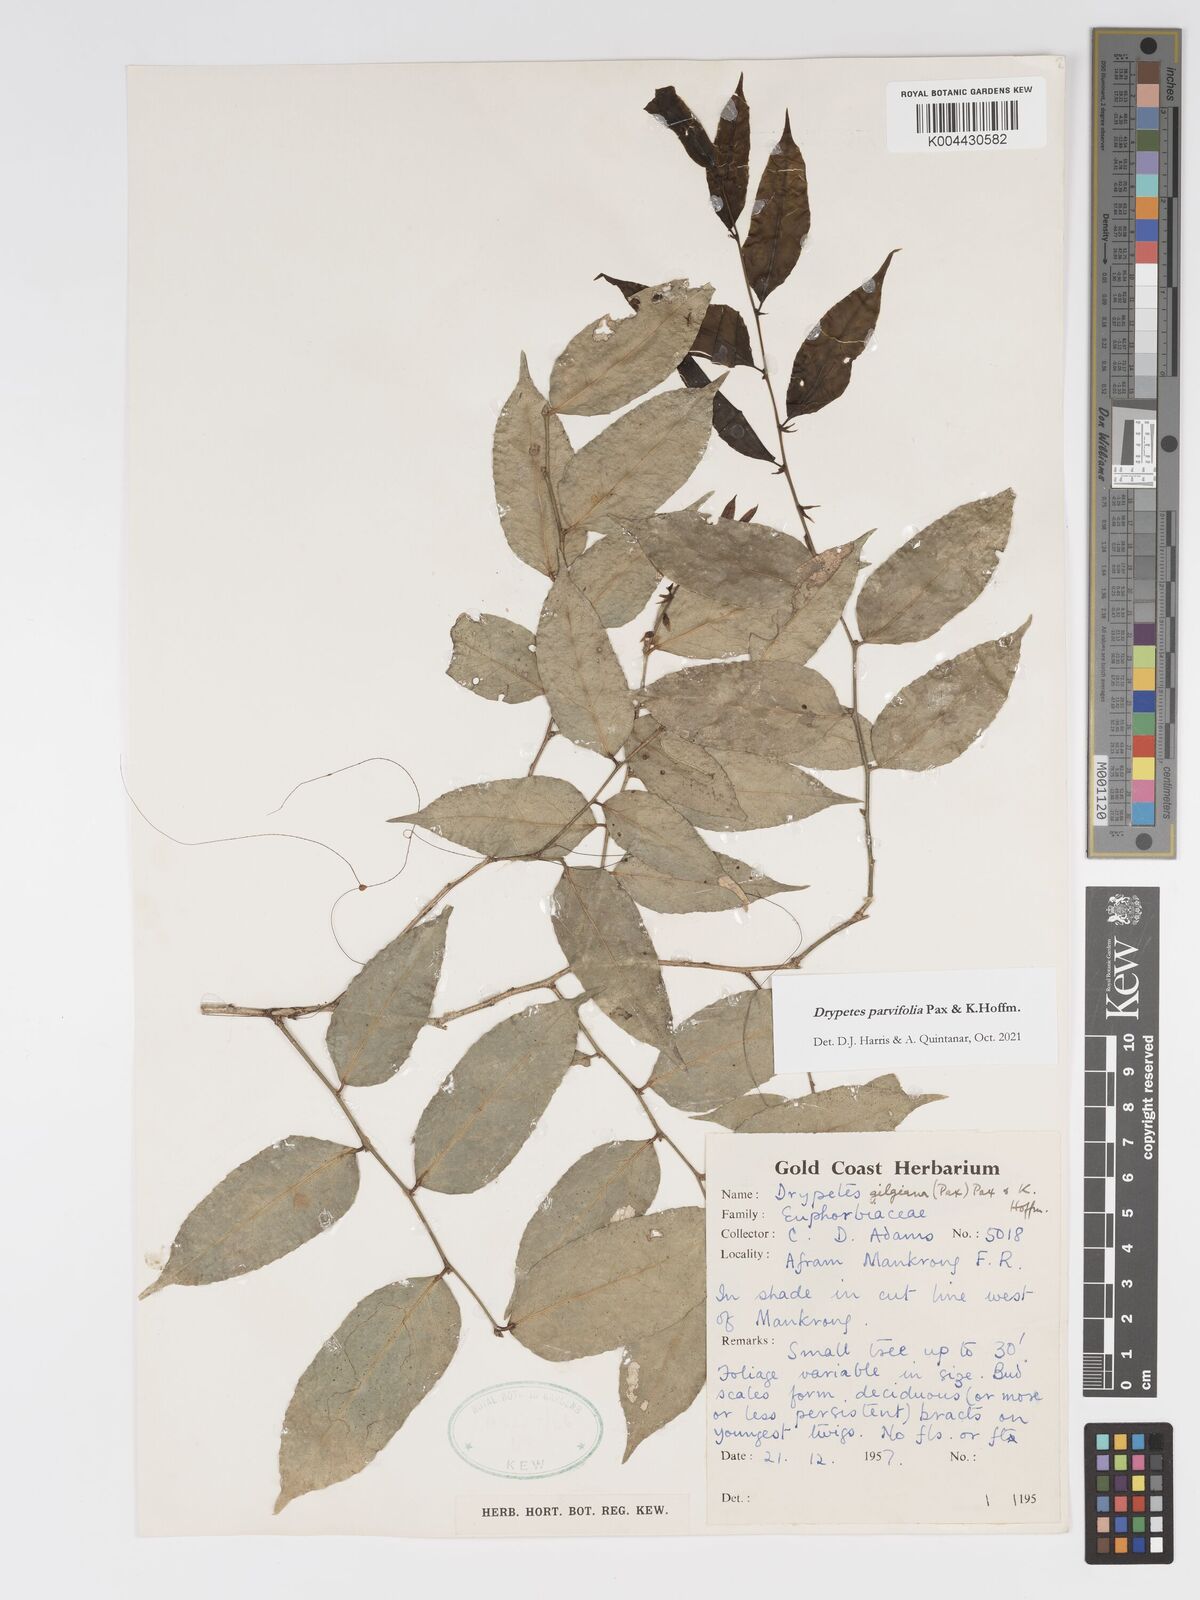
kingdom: Plantae
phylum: Tracheophyta
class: Magnoliopsida
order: Malpighiales
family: Putranjivaceae
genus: Drypetes
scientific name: Drypetes parvifolia
